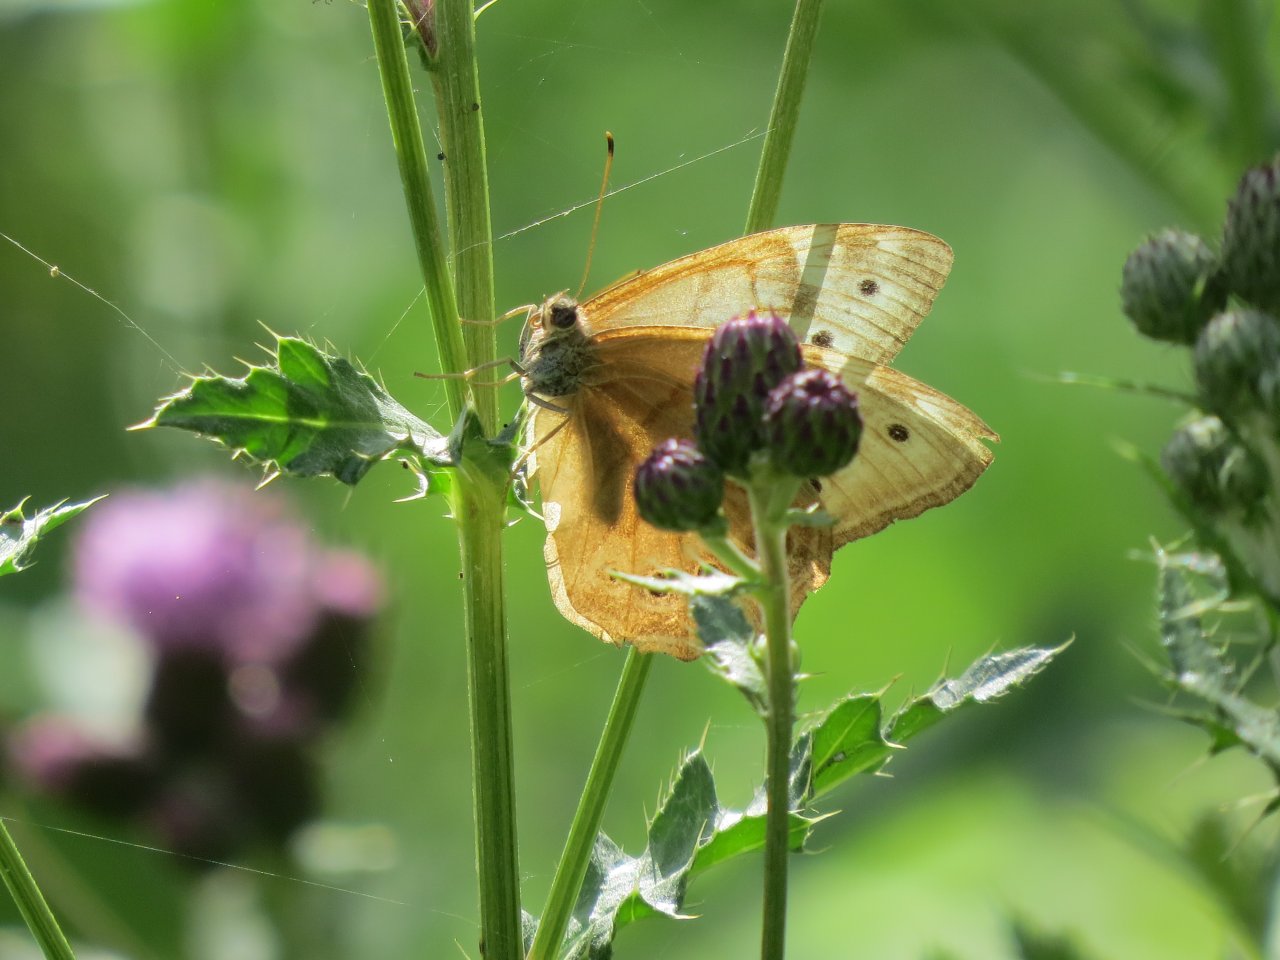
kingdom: Animalia
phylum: Arthropoda
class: Insecta
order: Lepidoptera
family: Nymphalidae
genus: Lethe
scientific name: Lethe anthedon
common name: Northern Pearly-Eye
